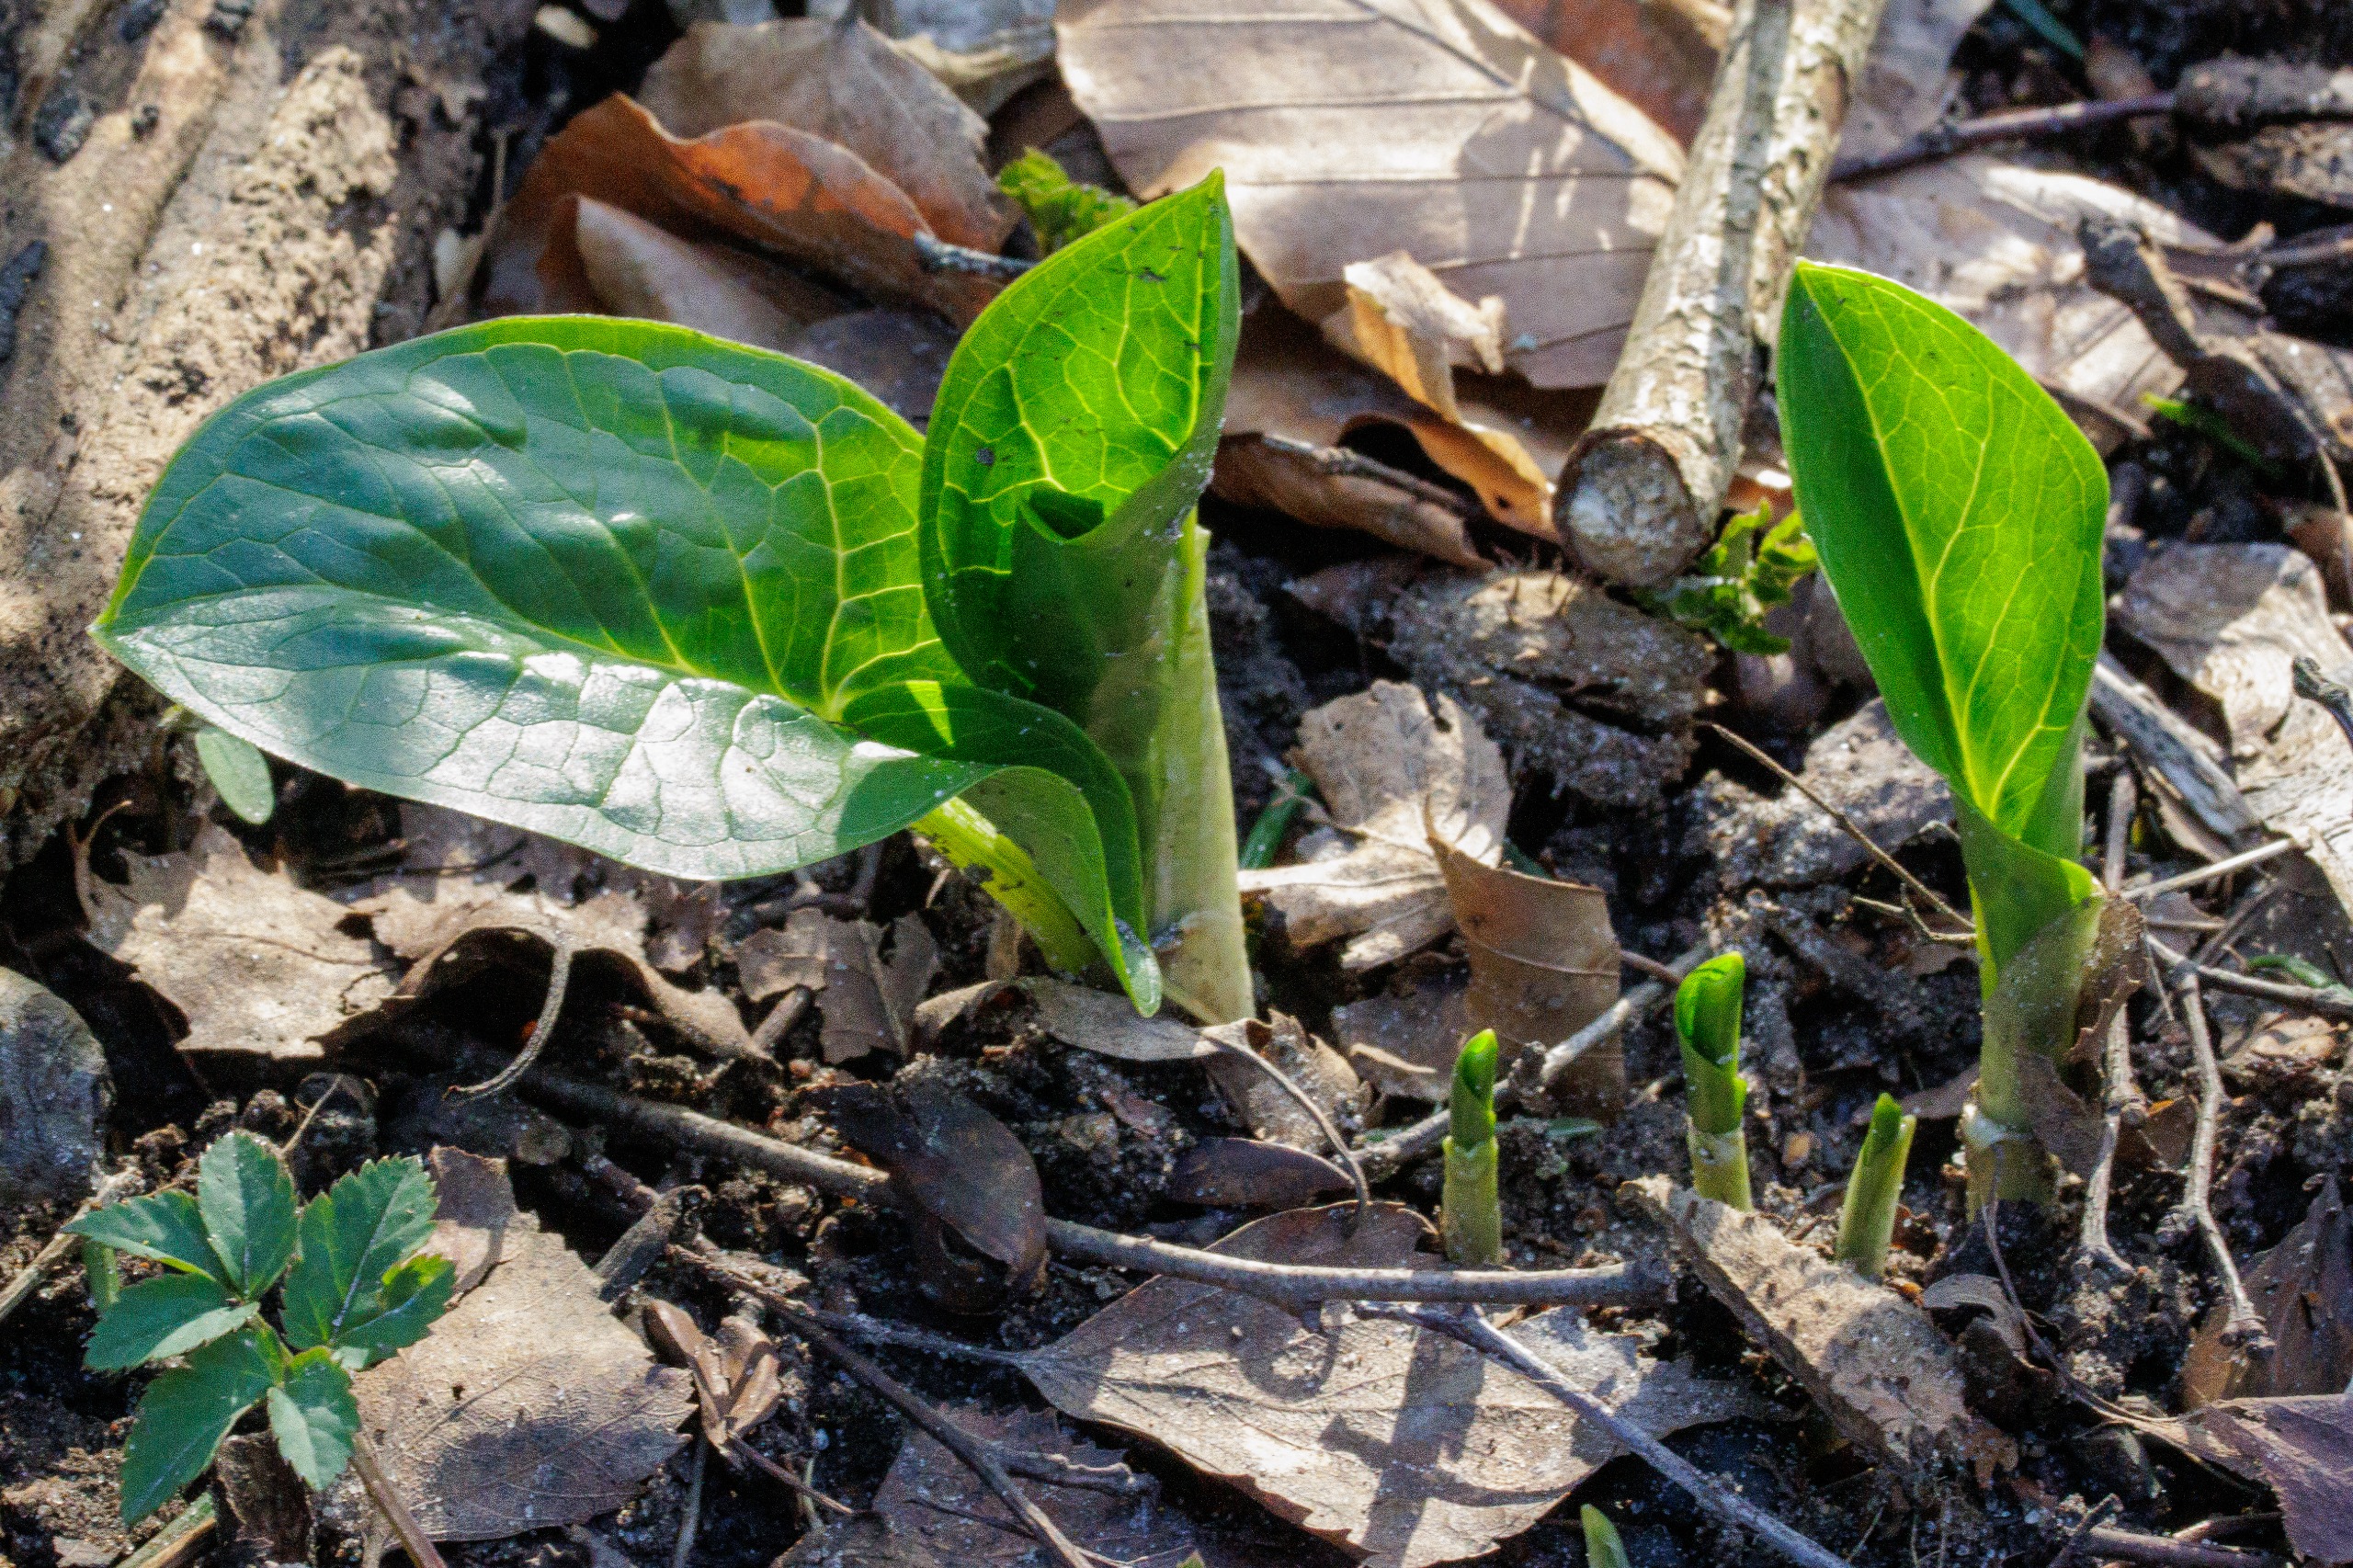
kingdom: Plantae
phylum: Tracheophyta
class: Liliopsida
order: Alismatales
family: Araceae
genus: Arum
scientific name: Arum maculatum
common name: Plettet arum
